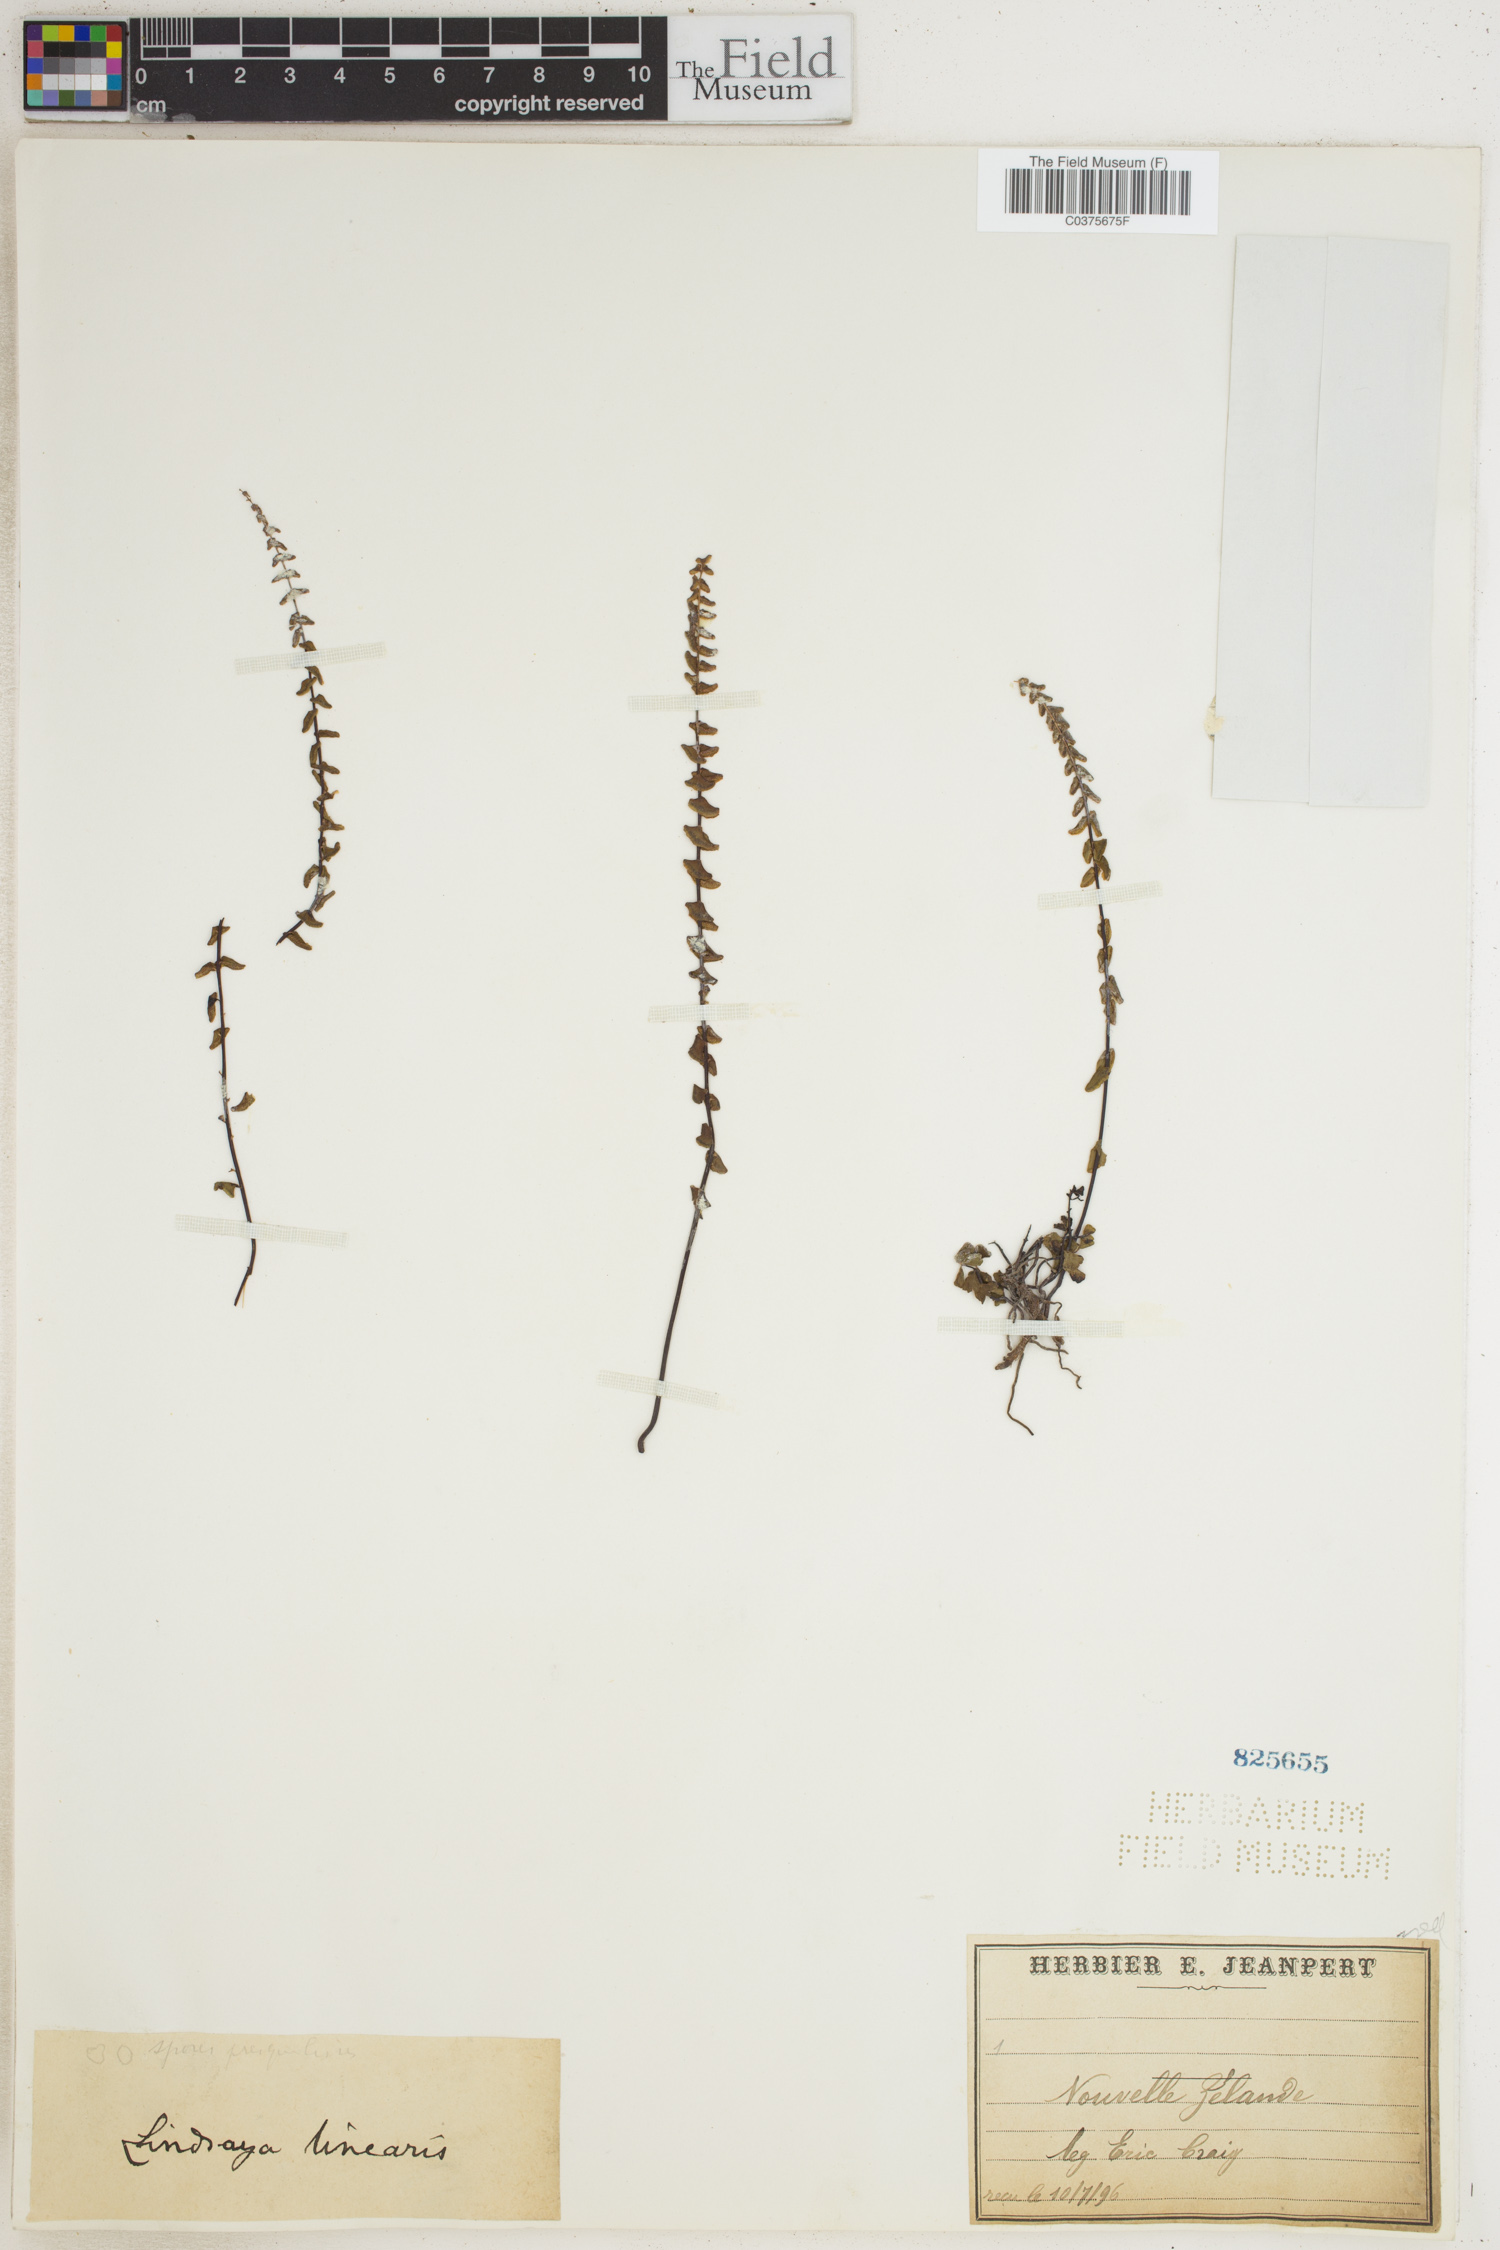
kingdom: Plantae
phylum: Tracheophyta
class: Polypodiopsida
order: Polypodiales
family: Lindsaeaceae
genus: Lindsaea
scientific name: Lindsaea linearis
